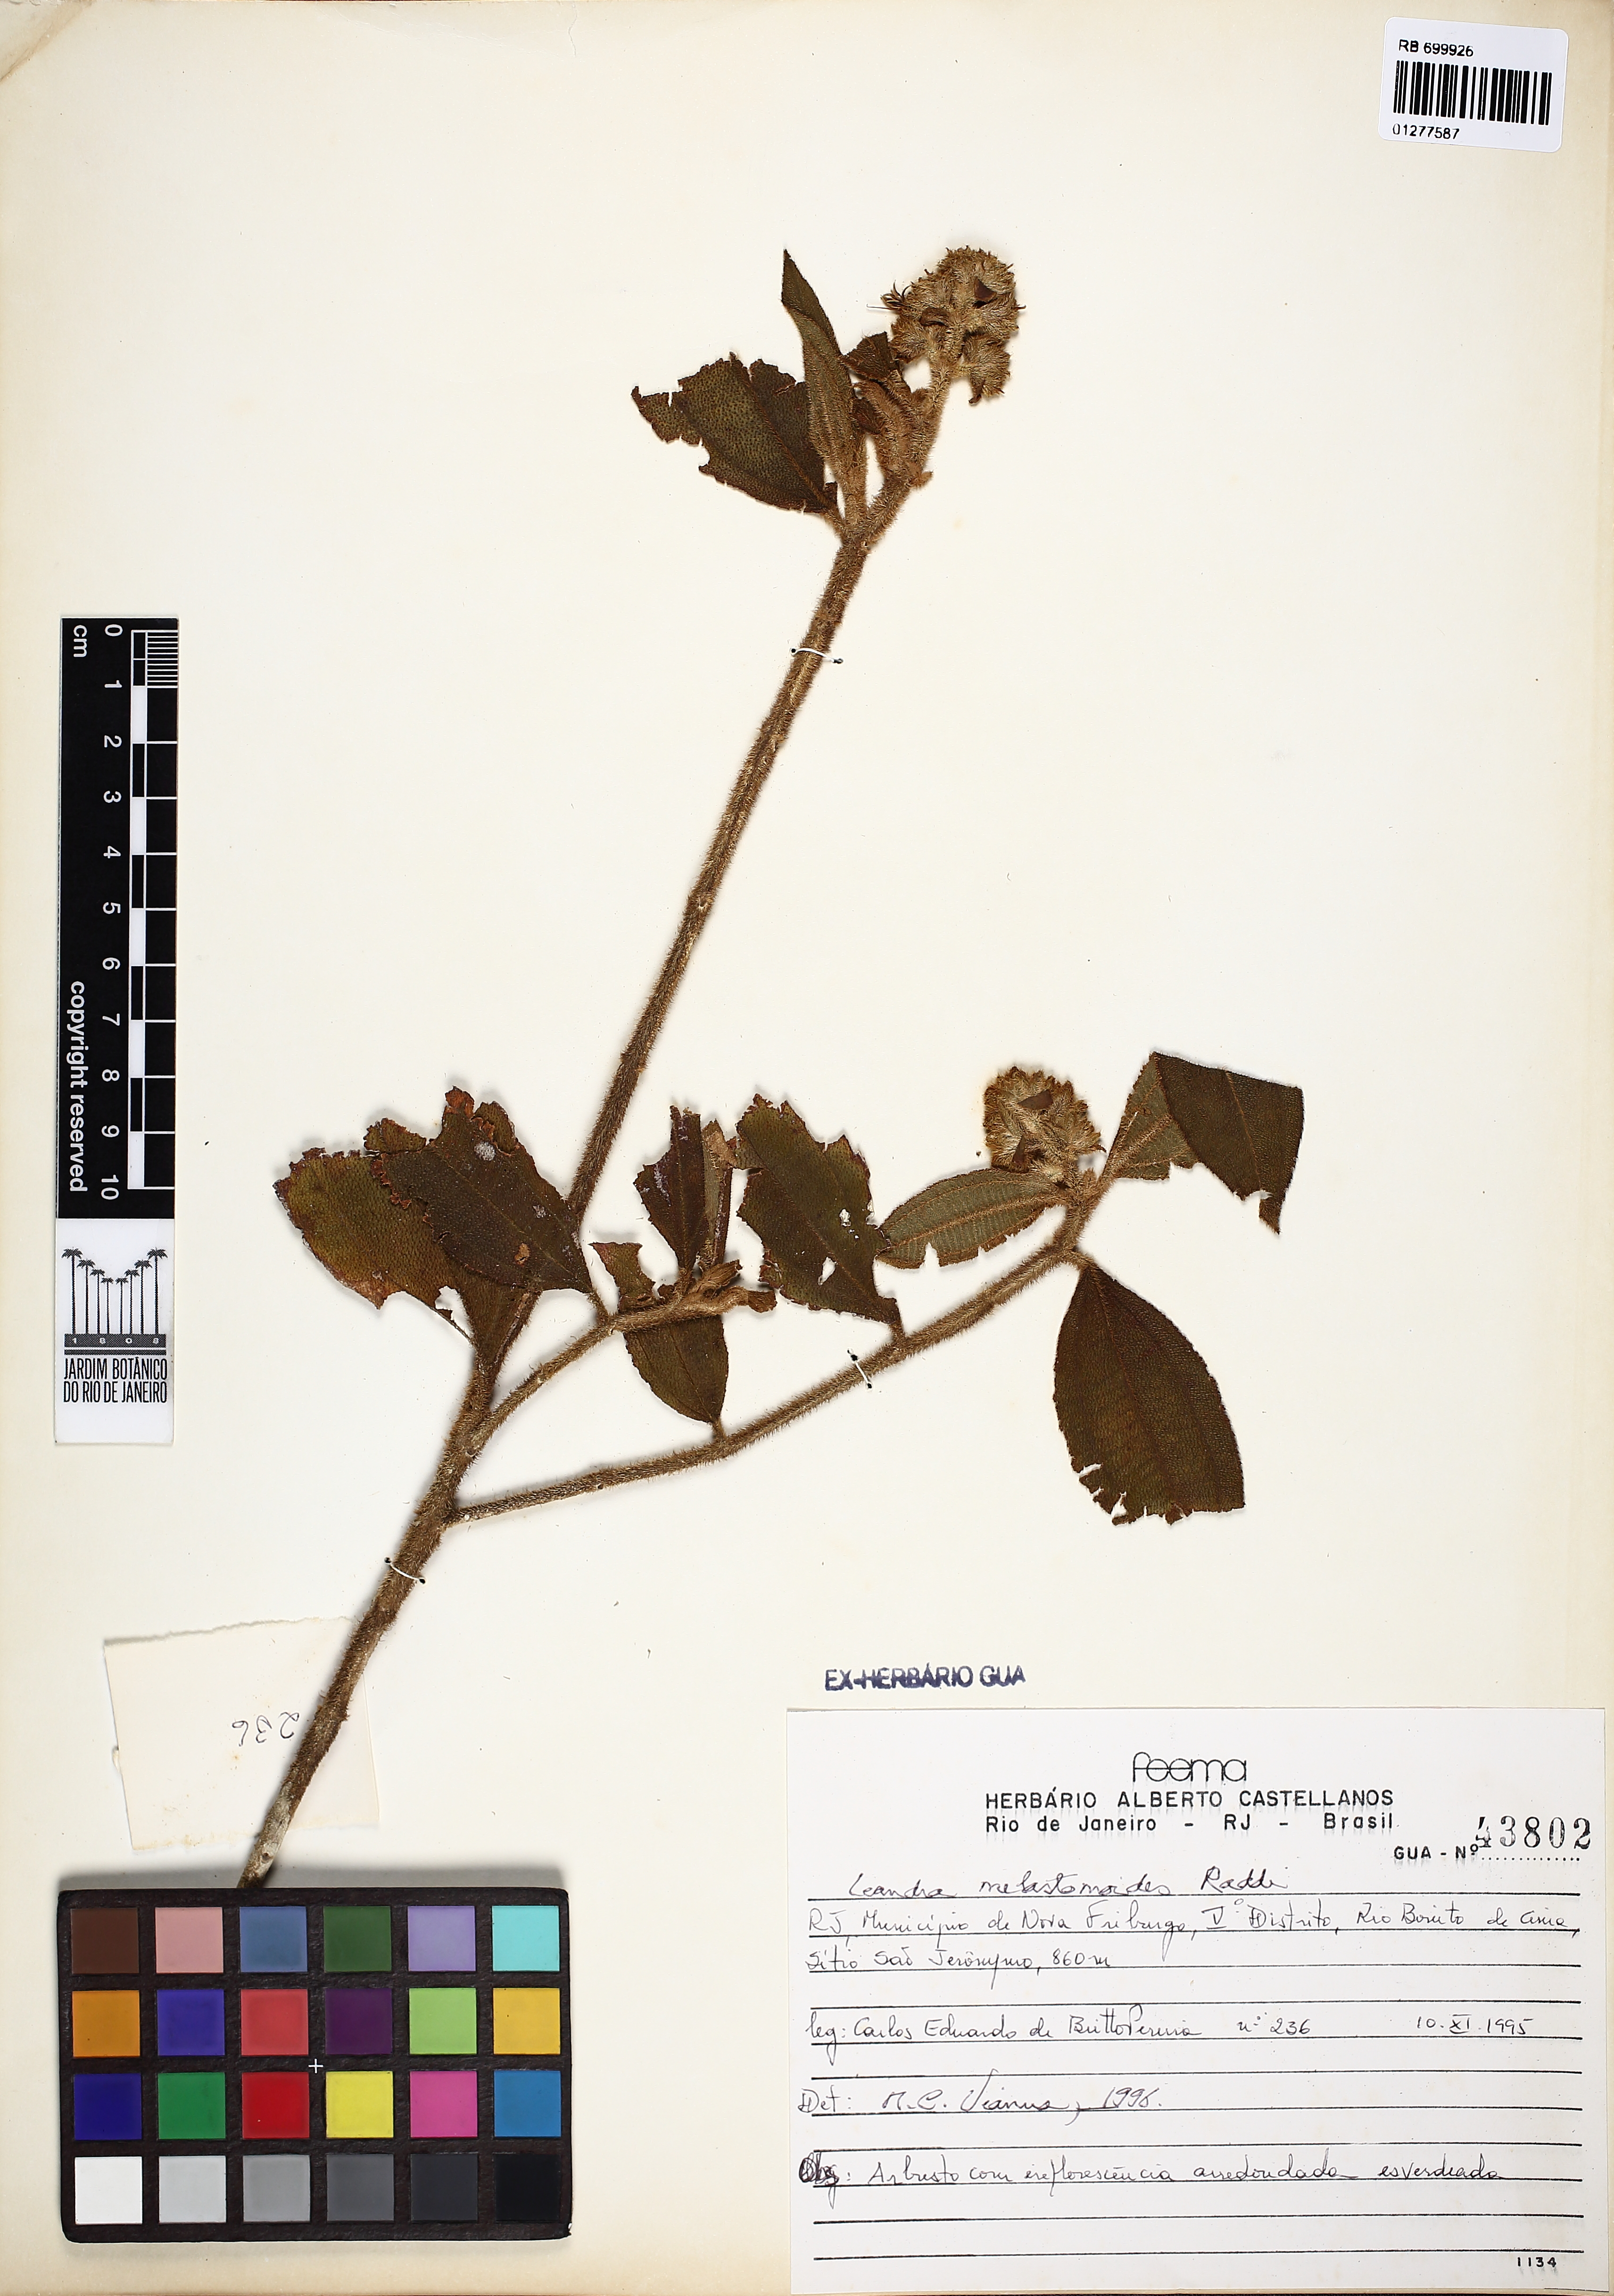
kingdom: Plantae
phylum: Tracheophyta
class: Magnoliopsida
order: Myrtales
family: Melastomataceae
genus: Miconia
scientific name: Miconia melastomoides
